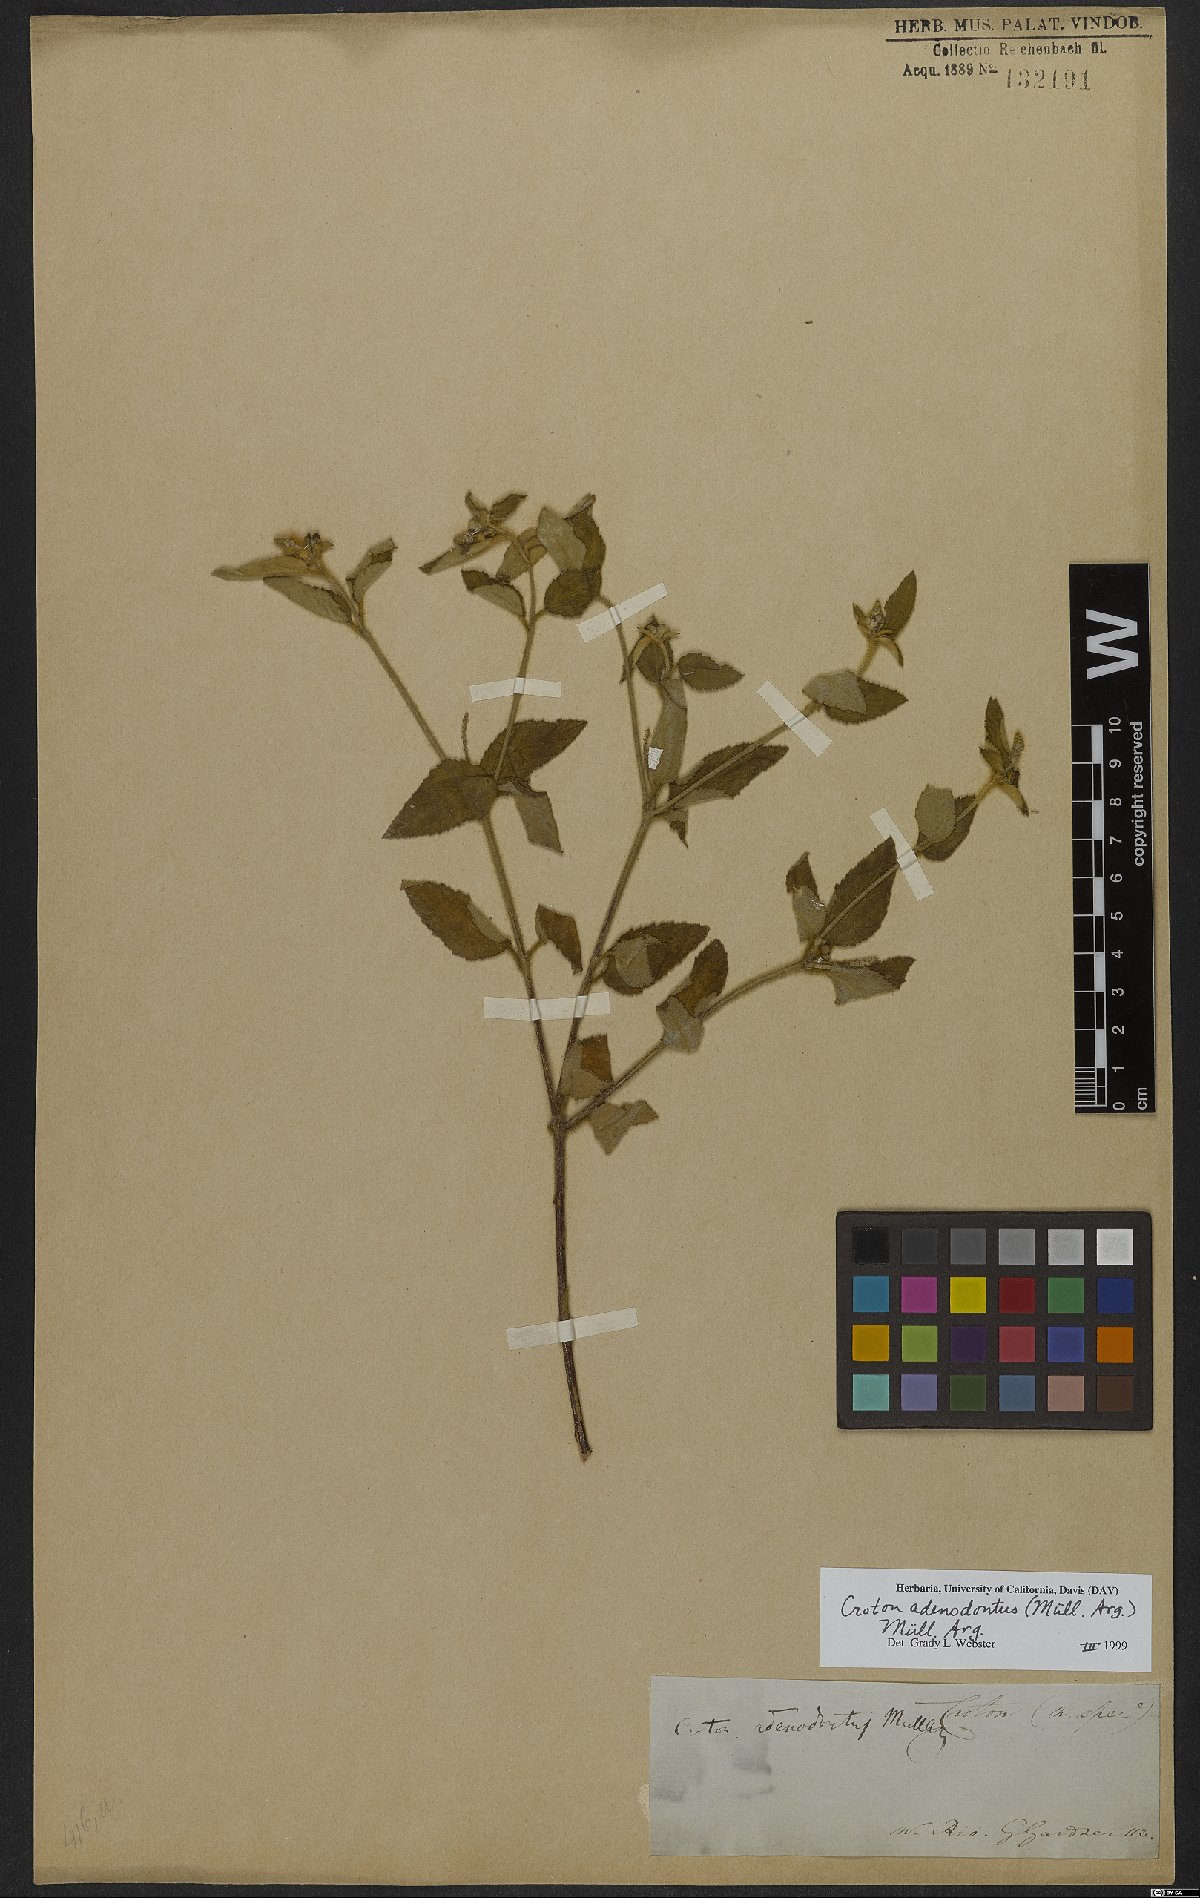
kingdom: Plantae
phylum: Tracheophyta
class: Magnoliopsida
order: Malpighiales
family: Euphorbiaceae
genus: Croton
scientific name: Croton adenodontus
